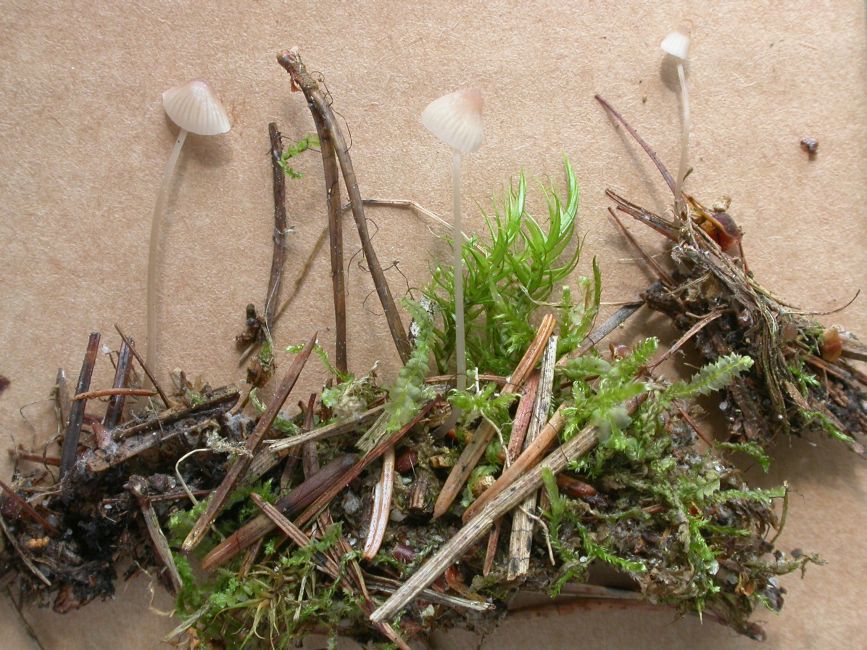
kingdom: Fungi
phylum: Basidiomycota
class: Agaricomycetes
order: Agaricales
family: Mycenaceae
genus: Mycena
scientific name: Mycena metata
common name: rødlig huesvamp
